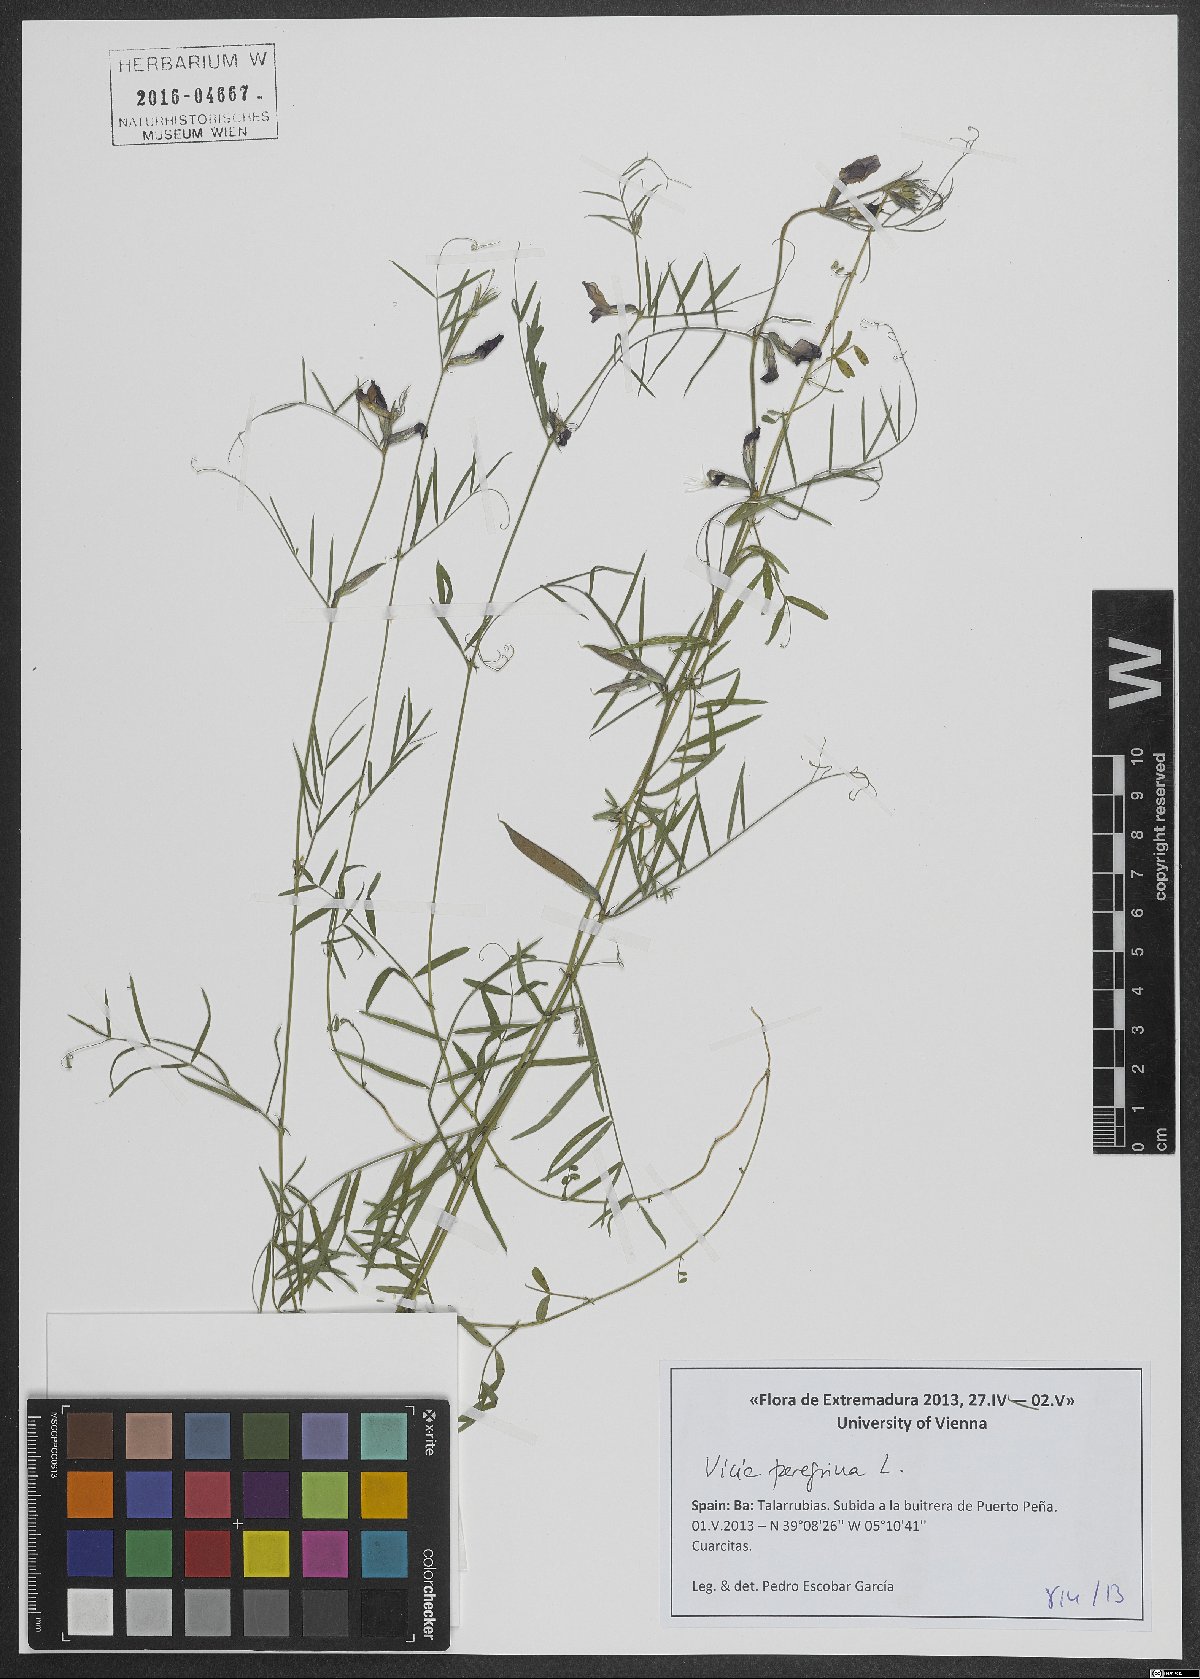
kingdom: Plantae
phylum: Tracheophyta
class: Magnoliopsida
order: Fabales
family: Fabaceae
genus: Vicia
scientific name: Vicia peregrina
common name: Broad-pod vetch
